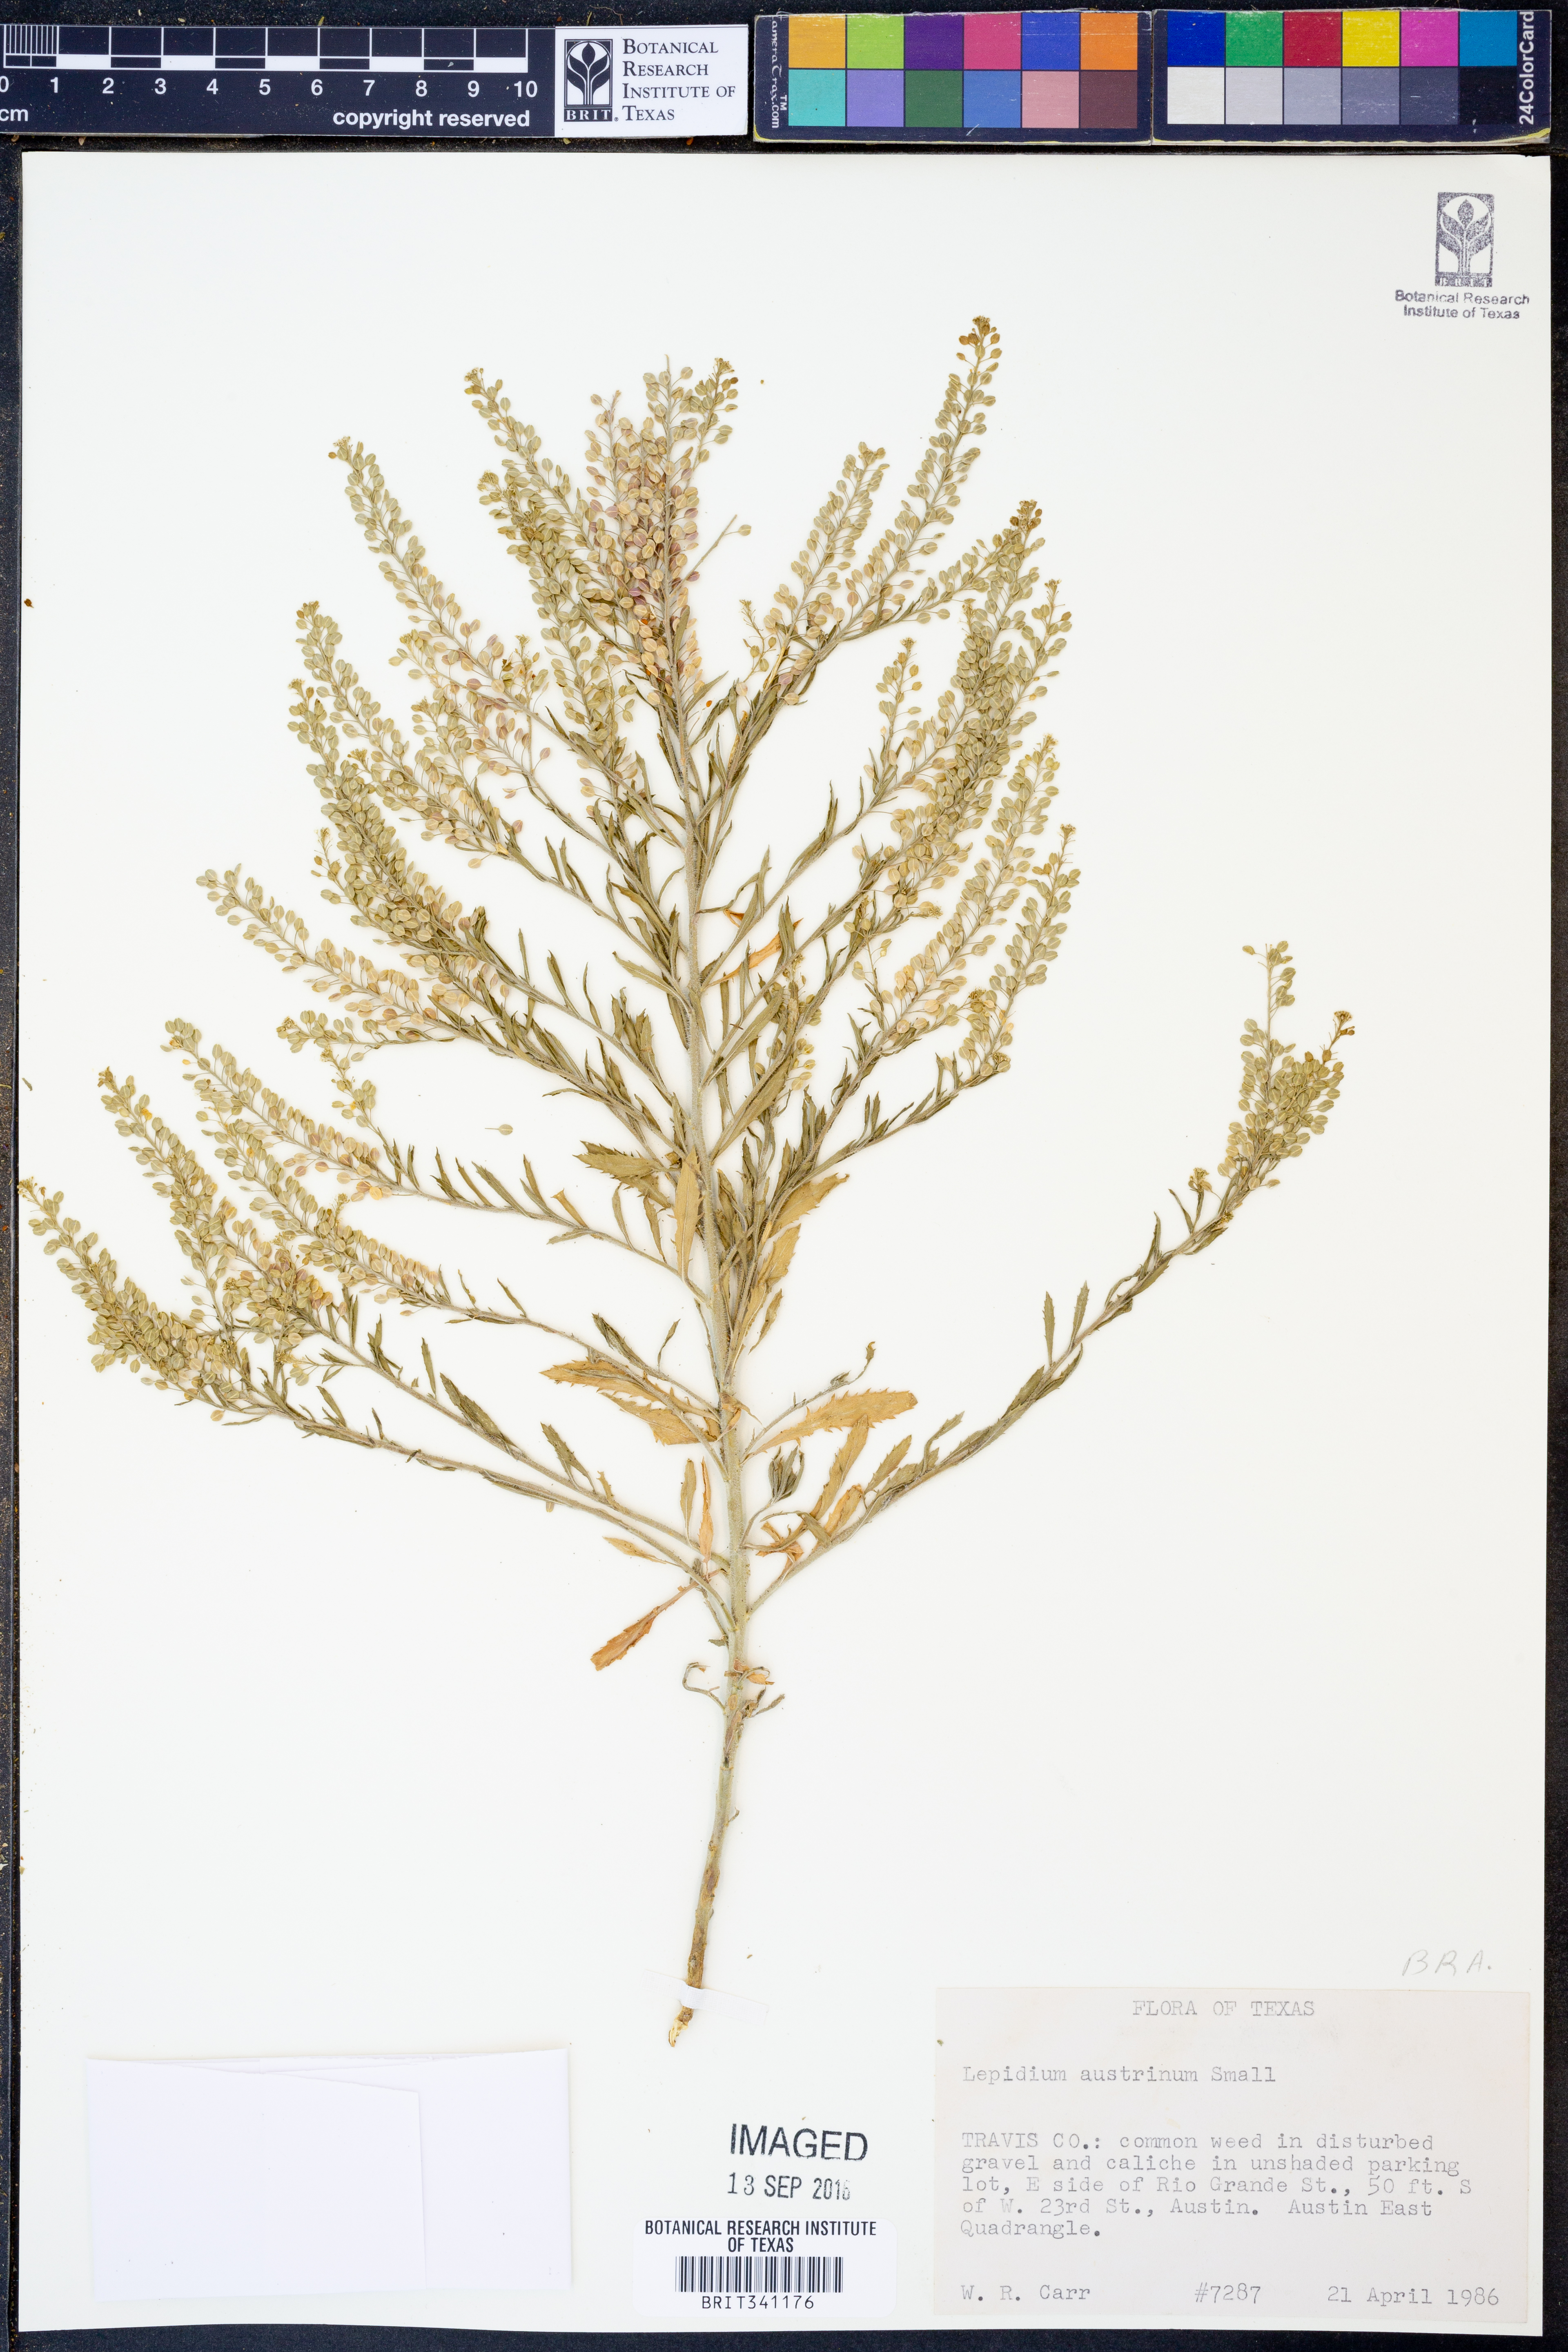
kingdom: Plantae
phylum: Tracheophyta
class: Magnoliopsida
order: Brassicales
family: Brassicaceae
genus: Lepidium
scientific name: Lepidium austrinum
